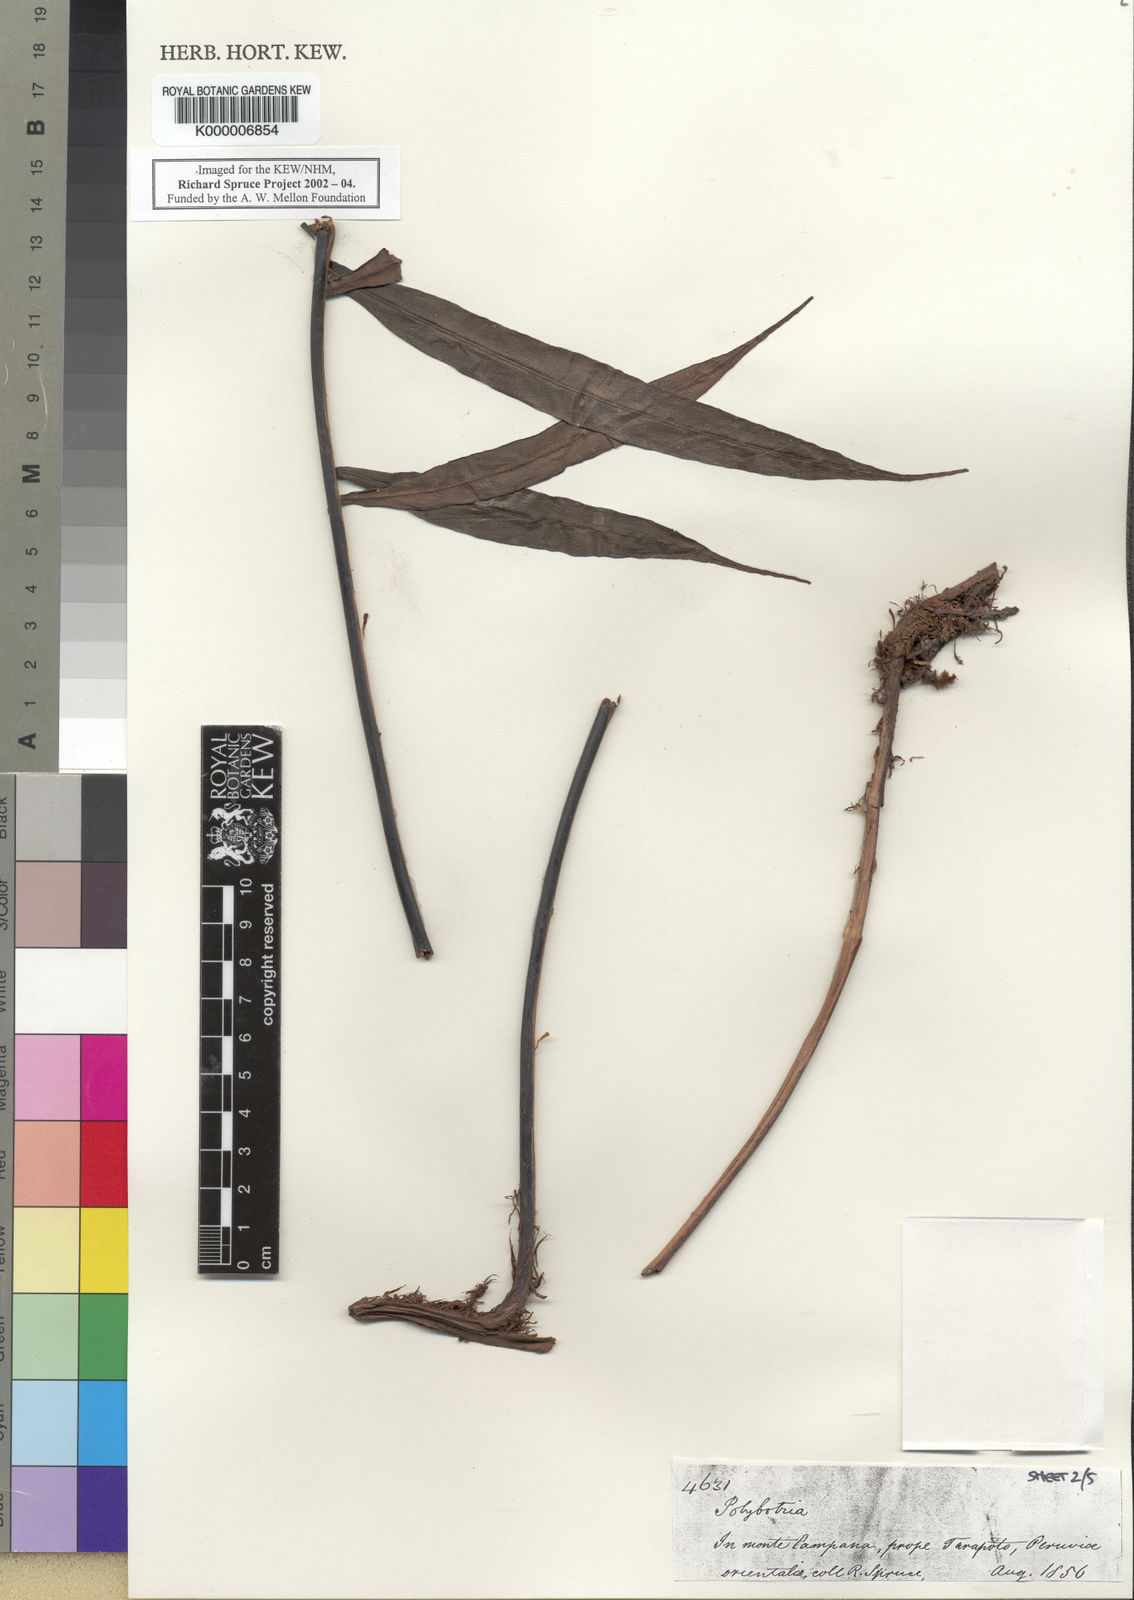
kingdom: Plantae
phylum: Tracheophyta
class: Polypodiopsida
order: Polypodiales
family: Dryopteridaceae
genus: Polybotrya
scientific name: Polybotrya
